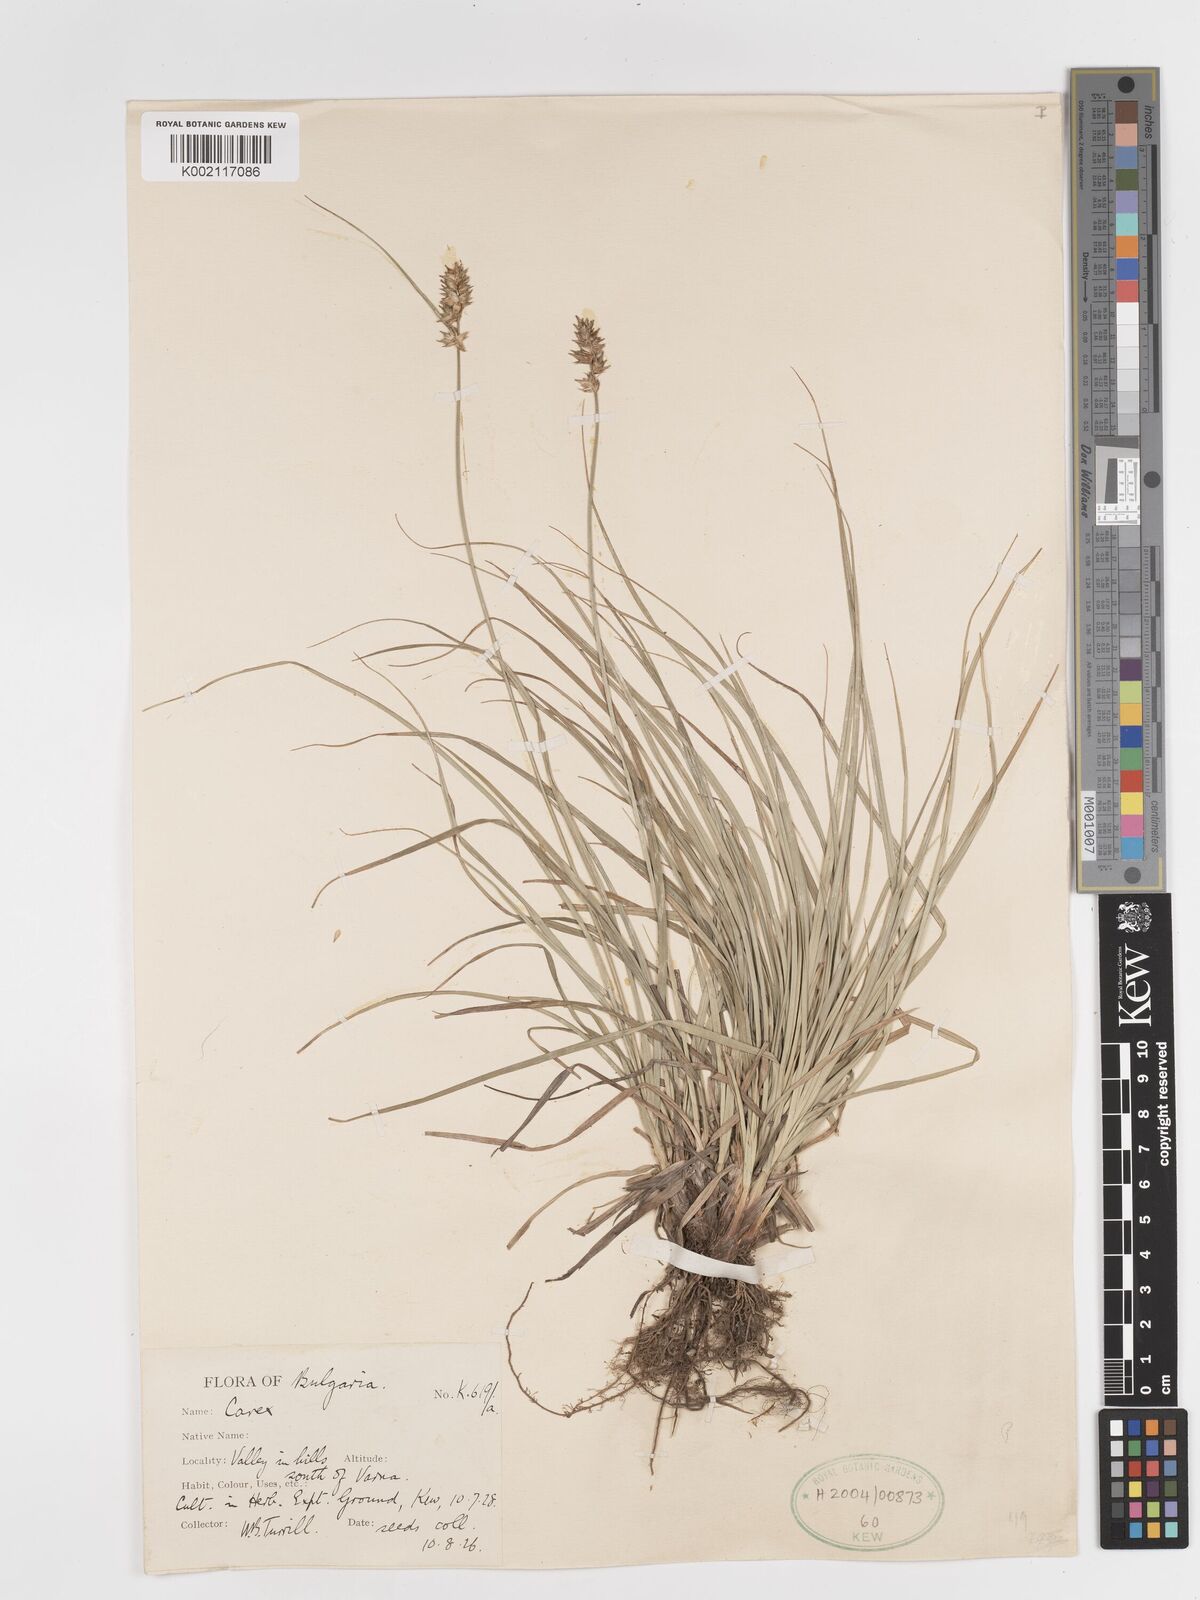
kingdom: Plantae
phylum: Tracheophyta
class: Liliopsida
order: Poales
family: Cyperaceae
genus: Carex
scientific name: Carex leersii
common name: Leers' sedge
